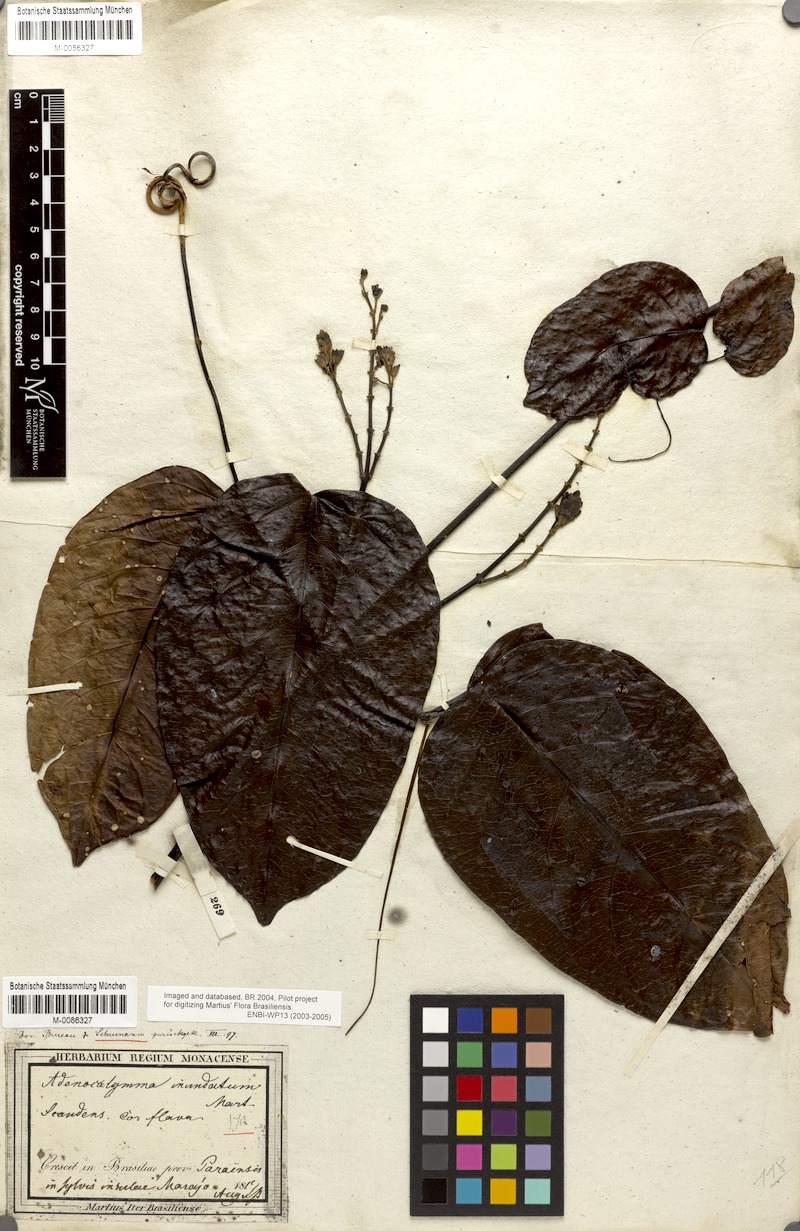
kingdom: Plantae
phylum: Tracheophyta
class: Magnoliopsida
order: Lamiales
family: Bignoniaceae
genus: Adenocalymma
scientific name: Adenocalymma inundatum
